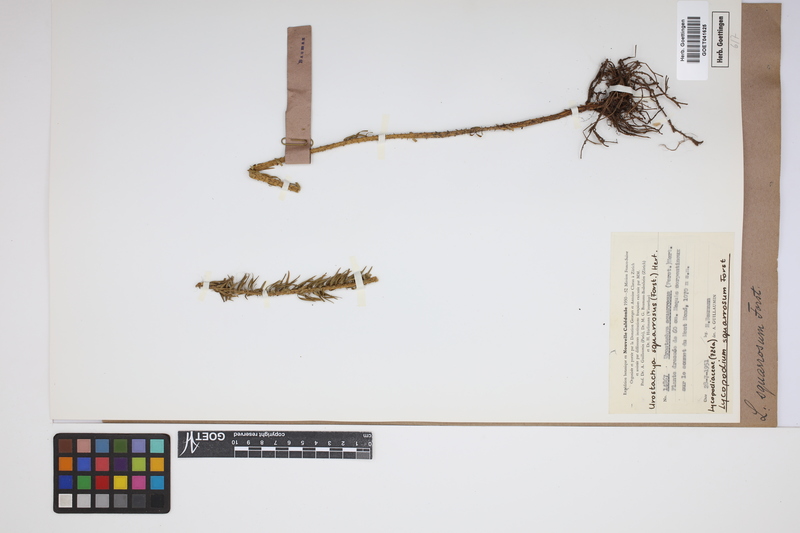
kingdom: Plantae
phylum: Tracheophyta
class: Lycopodiopsida
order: Lycopodiales
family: Lycopodiaceae
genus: Phlegmariurus
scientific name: Phlegmariurus squarrosus
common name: Rock tassel-fern
